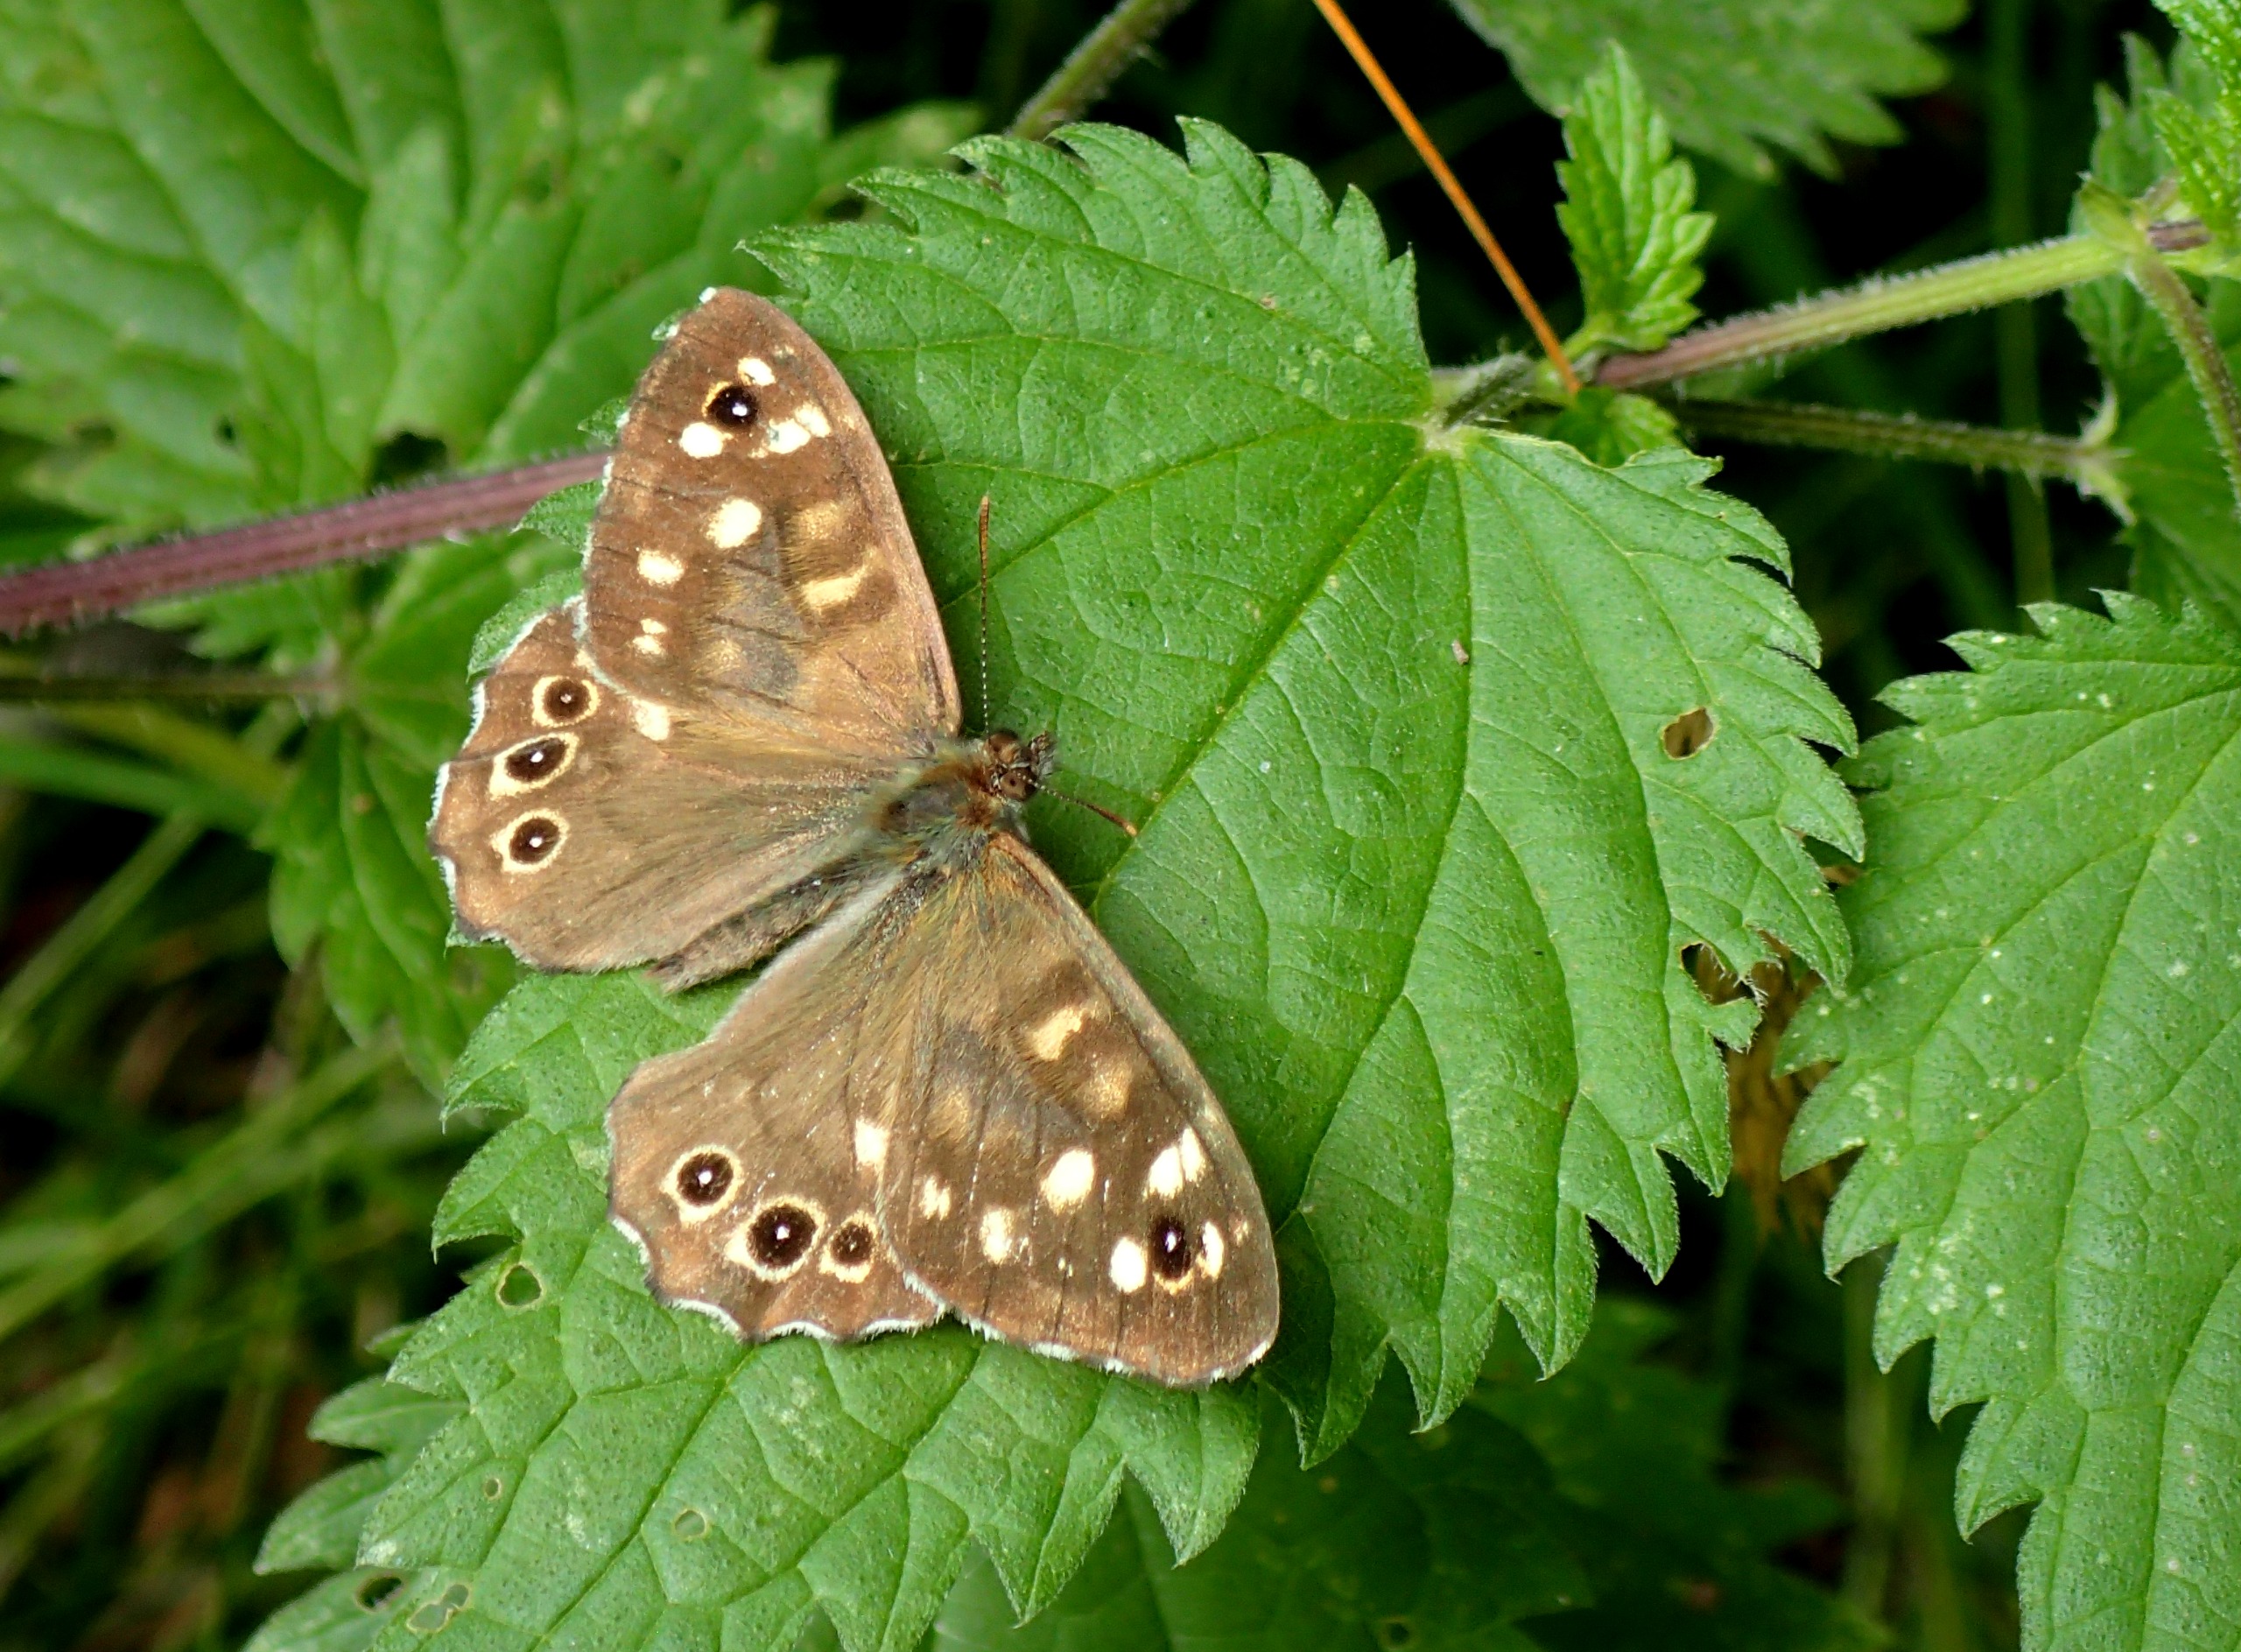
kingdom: Animalia
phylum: Arthropoda
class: Insecta
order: Lepidoptera
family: Nymphalidae
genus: Pararge
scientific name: Pararge aegeria
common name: Skovrandøje
